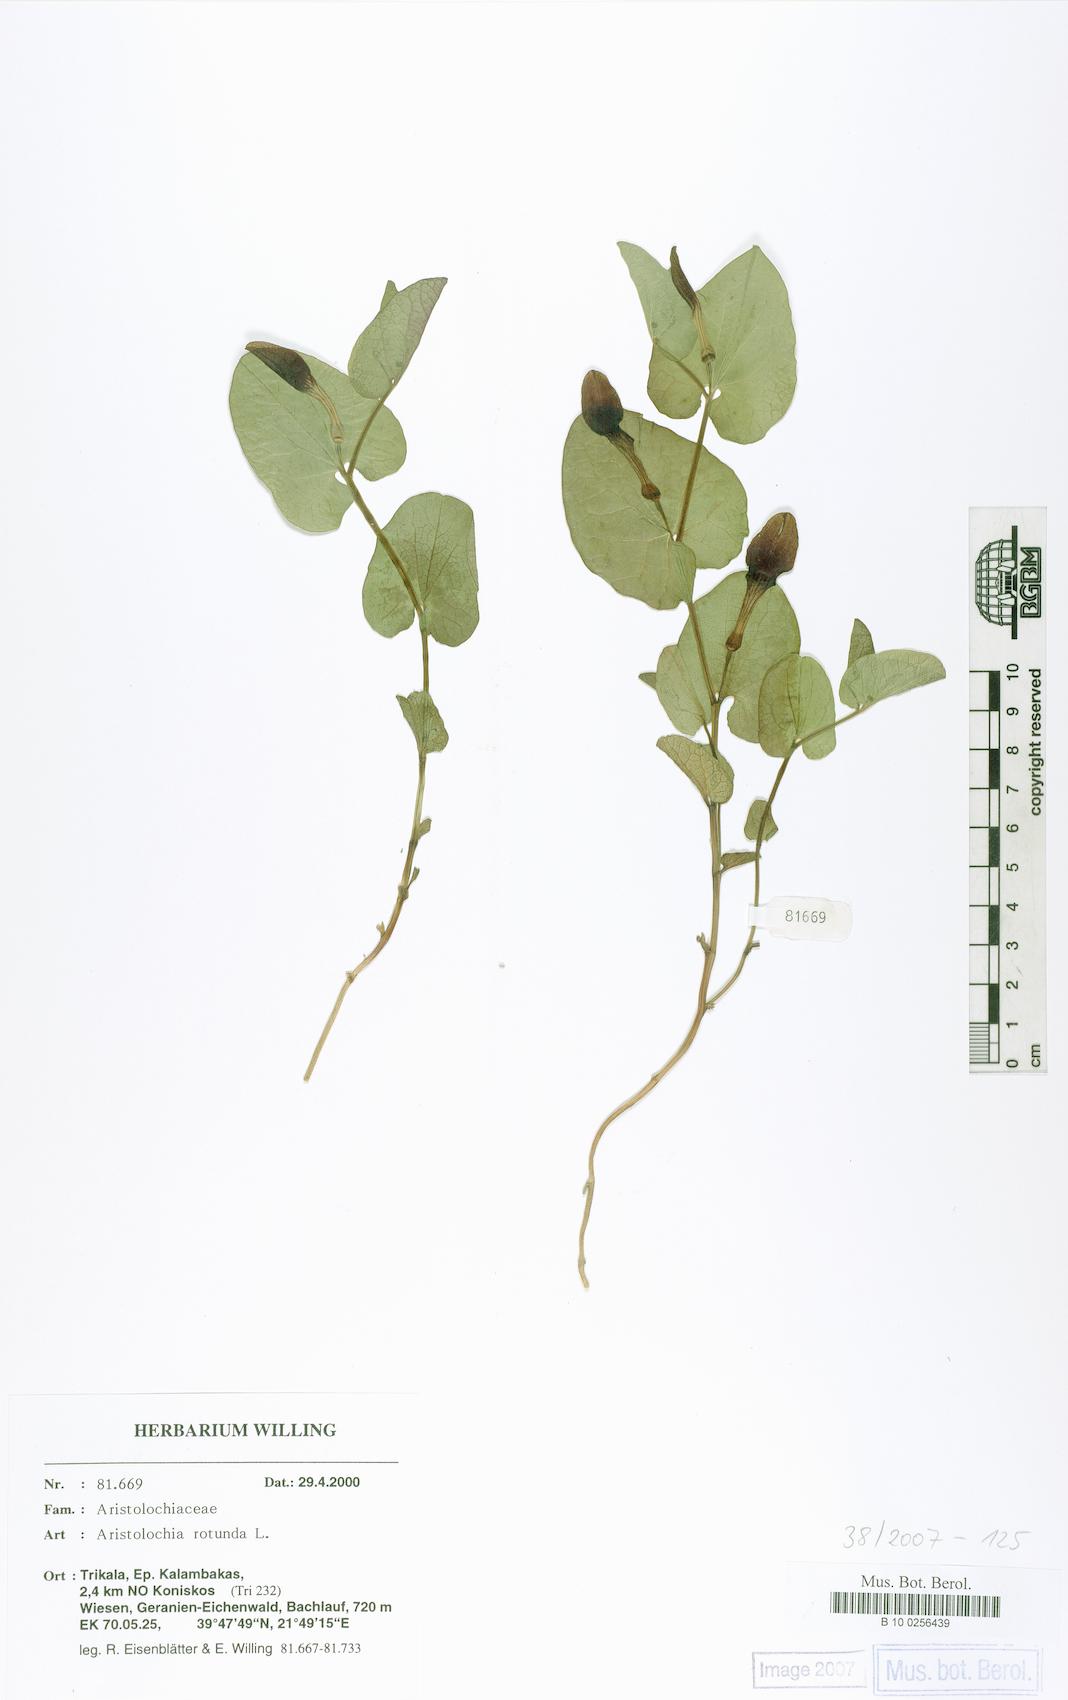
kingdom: Plantae
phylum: Tracheophyta
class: Magnoliopsida
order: Piperales
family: Aristolochiaceae
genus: Aristolochia
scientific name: Aristolochia rotunda
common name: Smearwort
